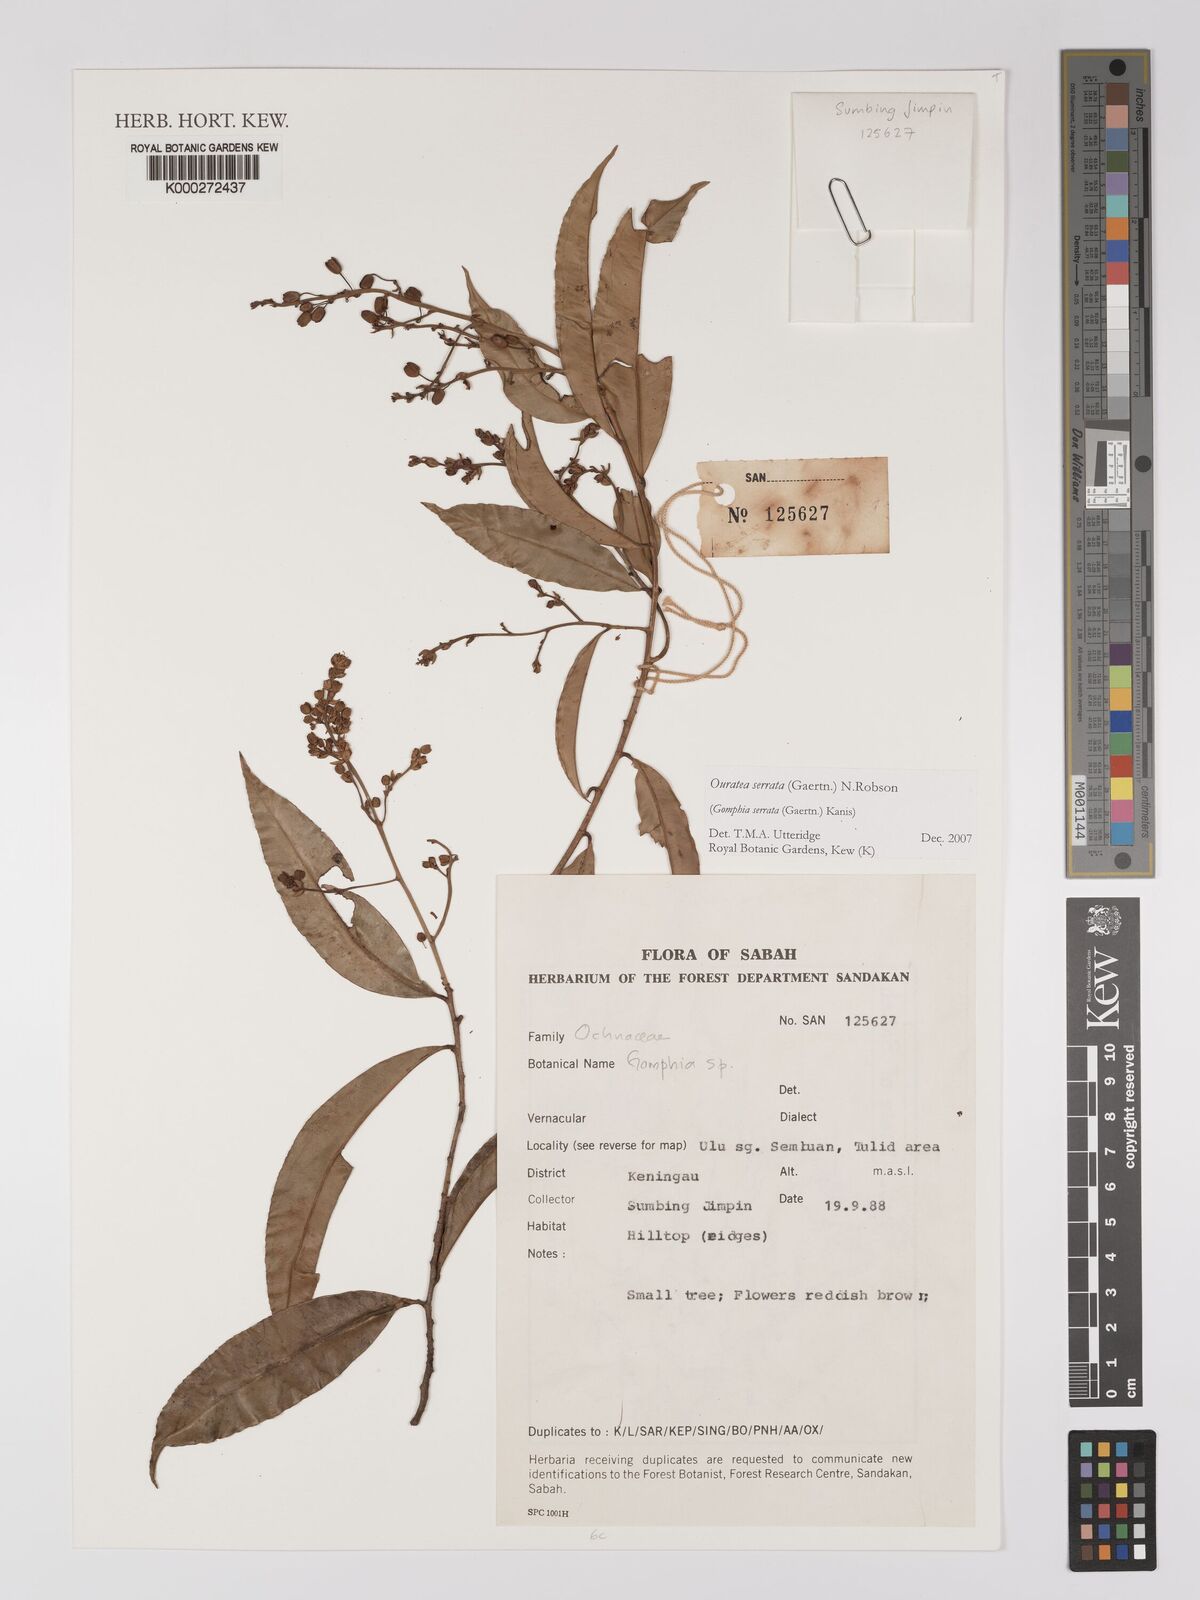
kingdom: Plantae
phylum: Tracheophyta
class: Magnoliopsida
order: Malpighiales
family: Ochnaceae
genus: Gomphia
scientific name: Gomphia serrata
